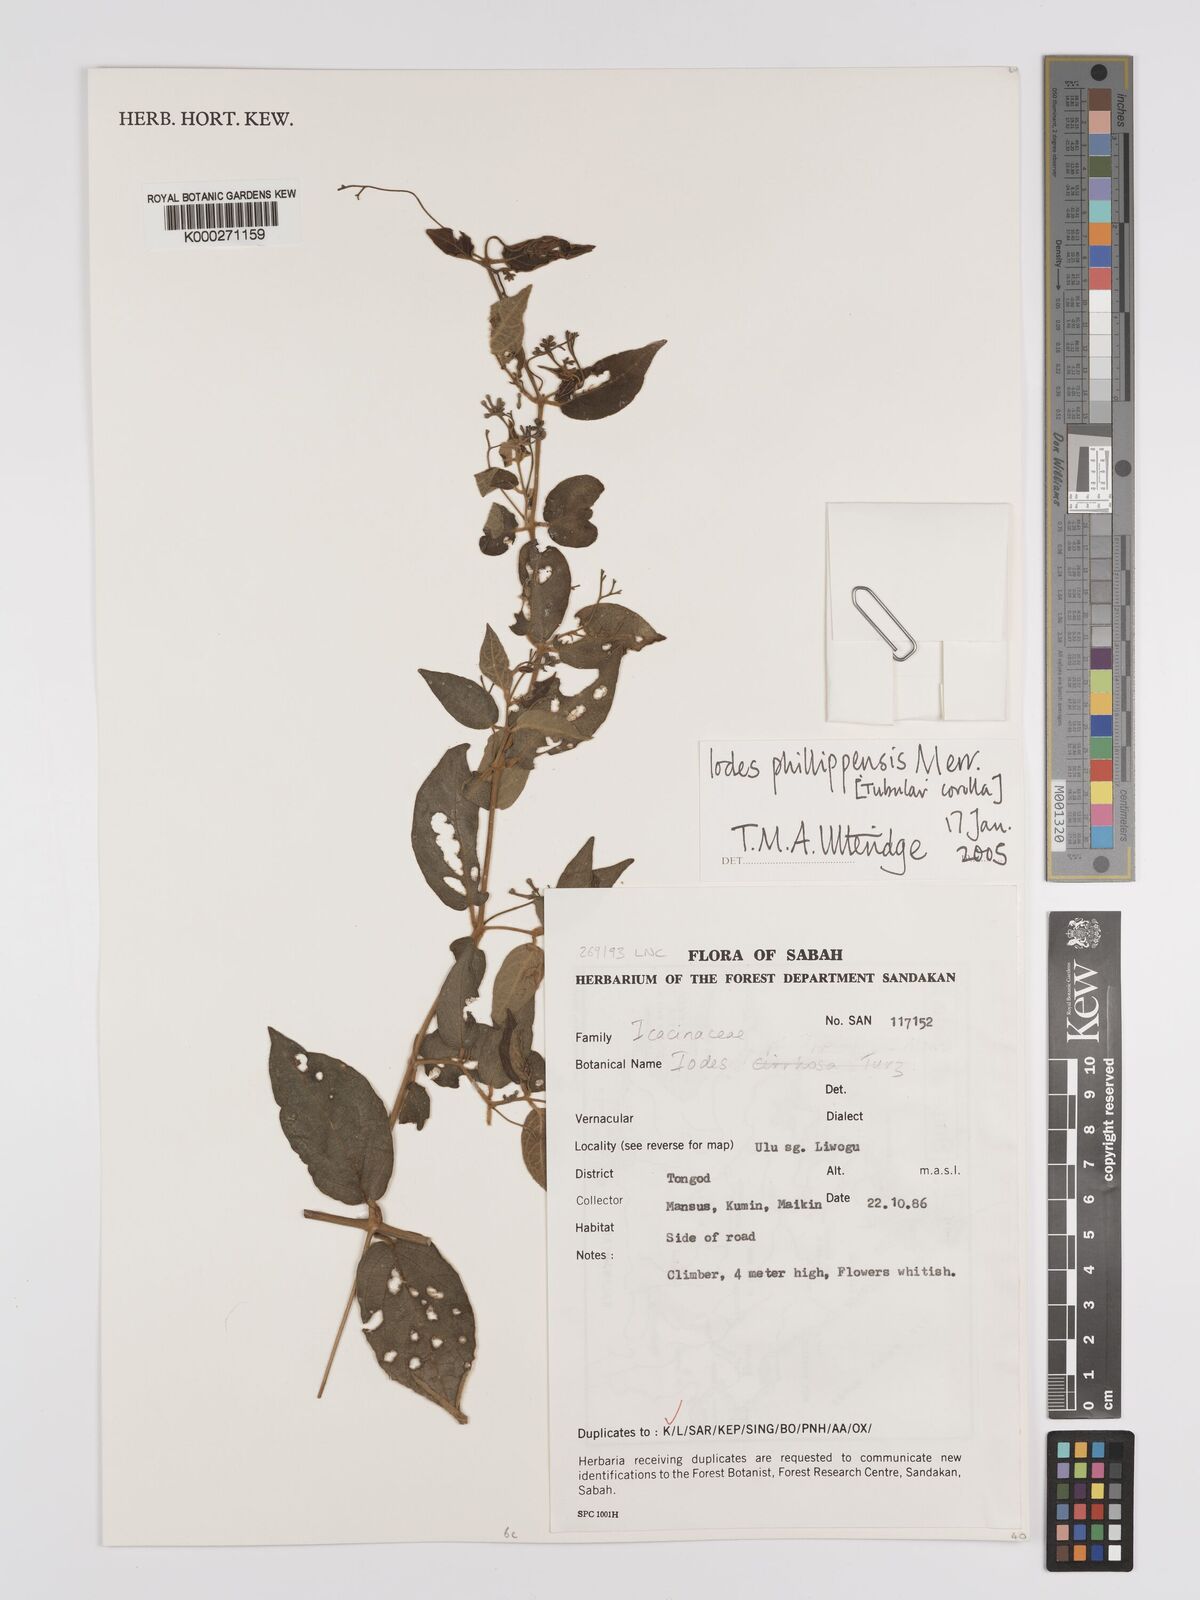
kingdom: Plantae
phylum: Tracheophyta
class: Magnoliopsida
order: Icacinales
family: Icacinaceae
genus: Iodes
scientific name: Iodes philippinensis
